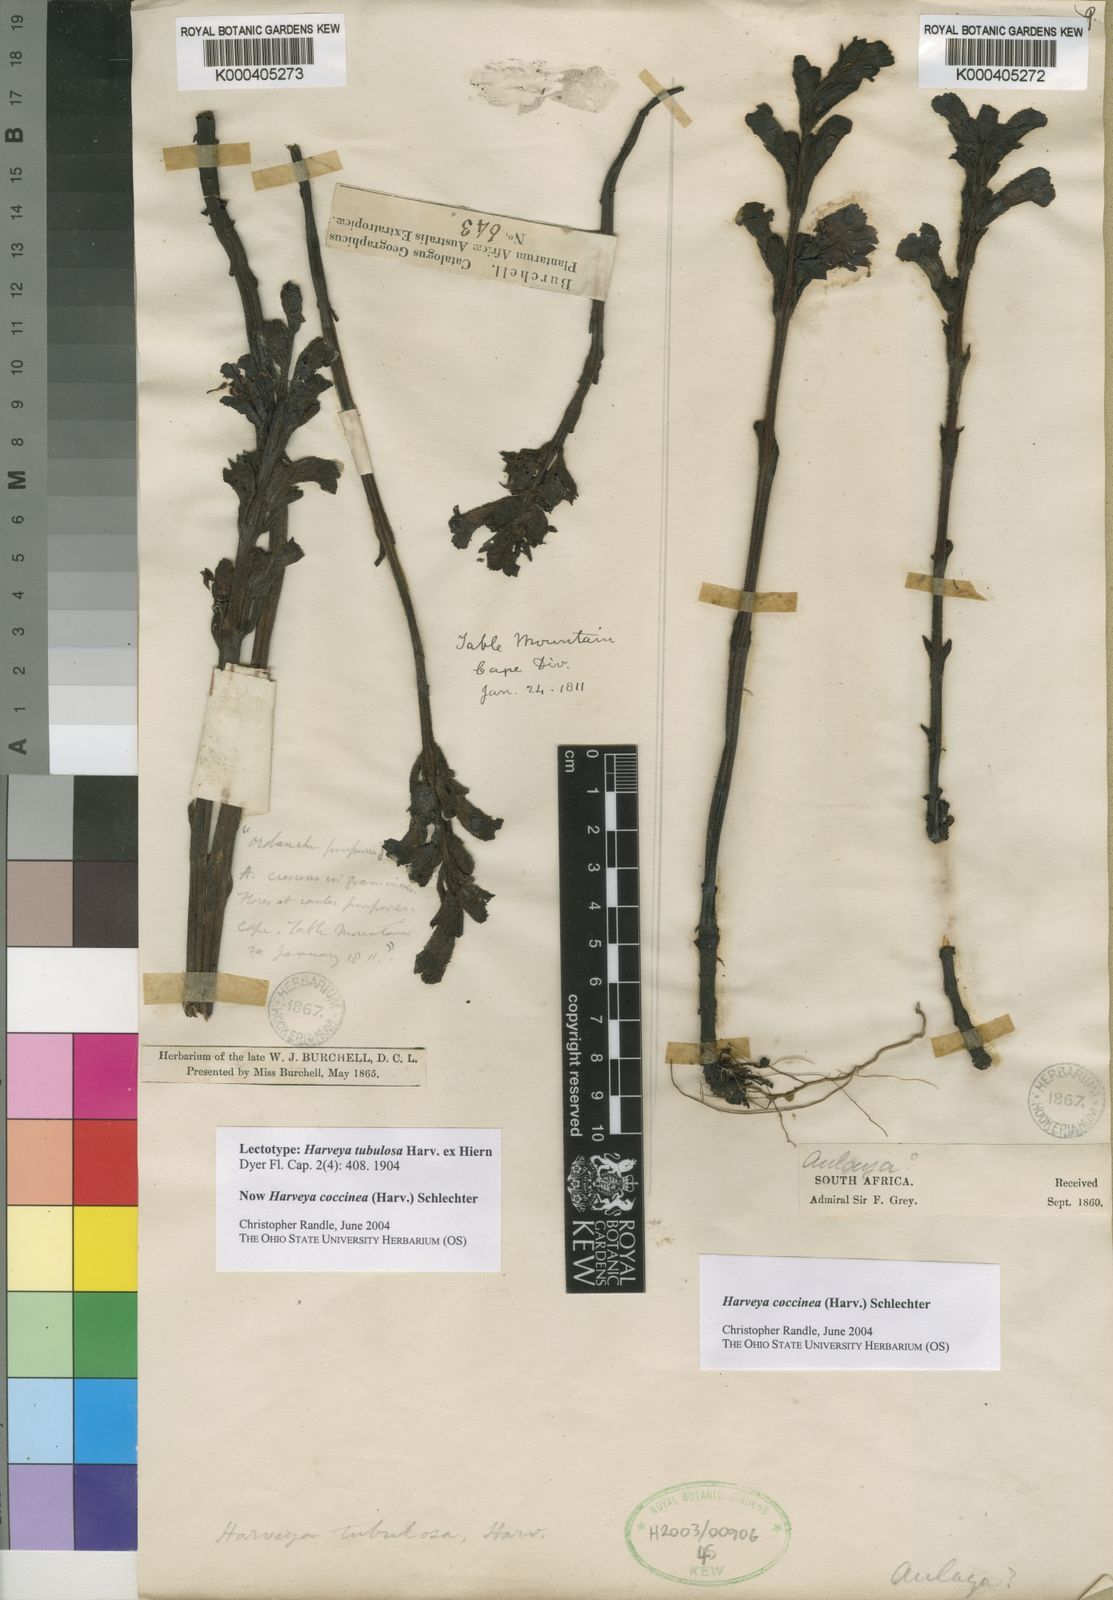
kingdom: Plantae
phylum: Tracheophyta
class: Magnoliopsida
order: Lamiales
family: Orobanchaceae
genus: Harveya
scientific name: Harveya pauciflora
